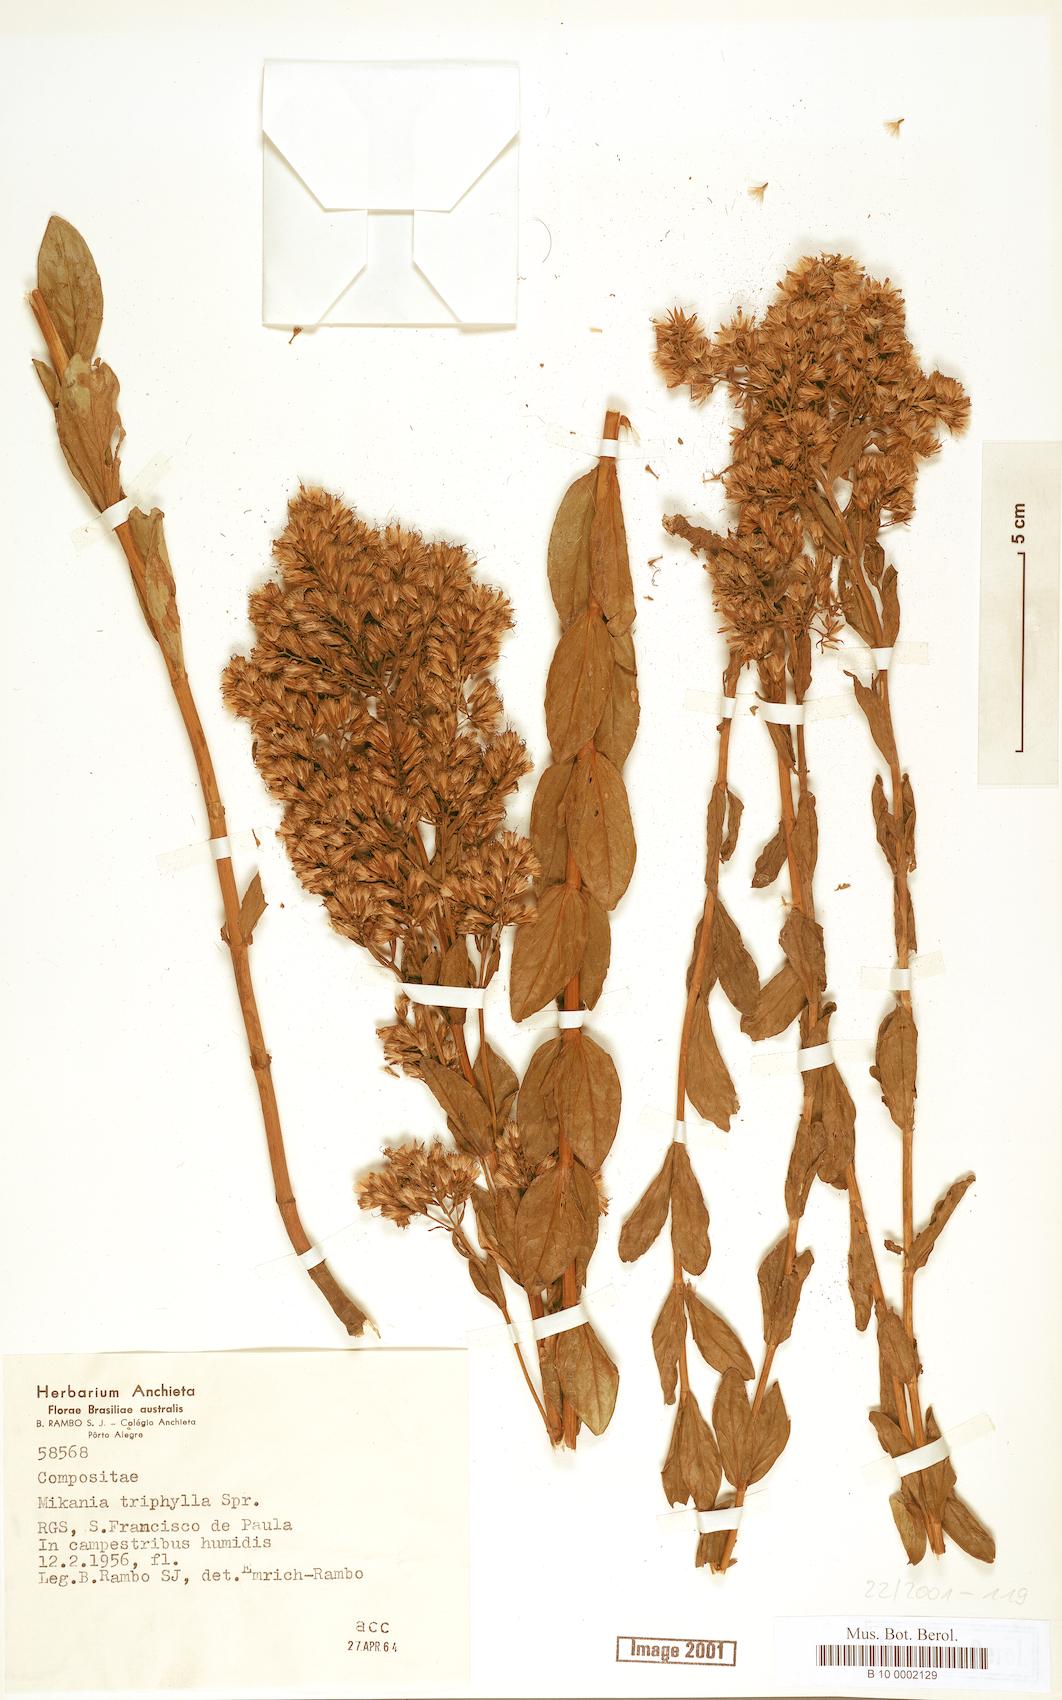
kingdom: Plantae
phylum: Tracheophyta
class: Magnoliopsida
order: Asterales
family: Asteraceae
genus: Mikania
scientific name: Mikania triphylla
